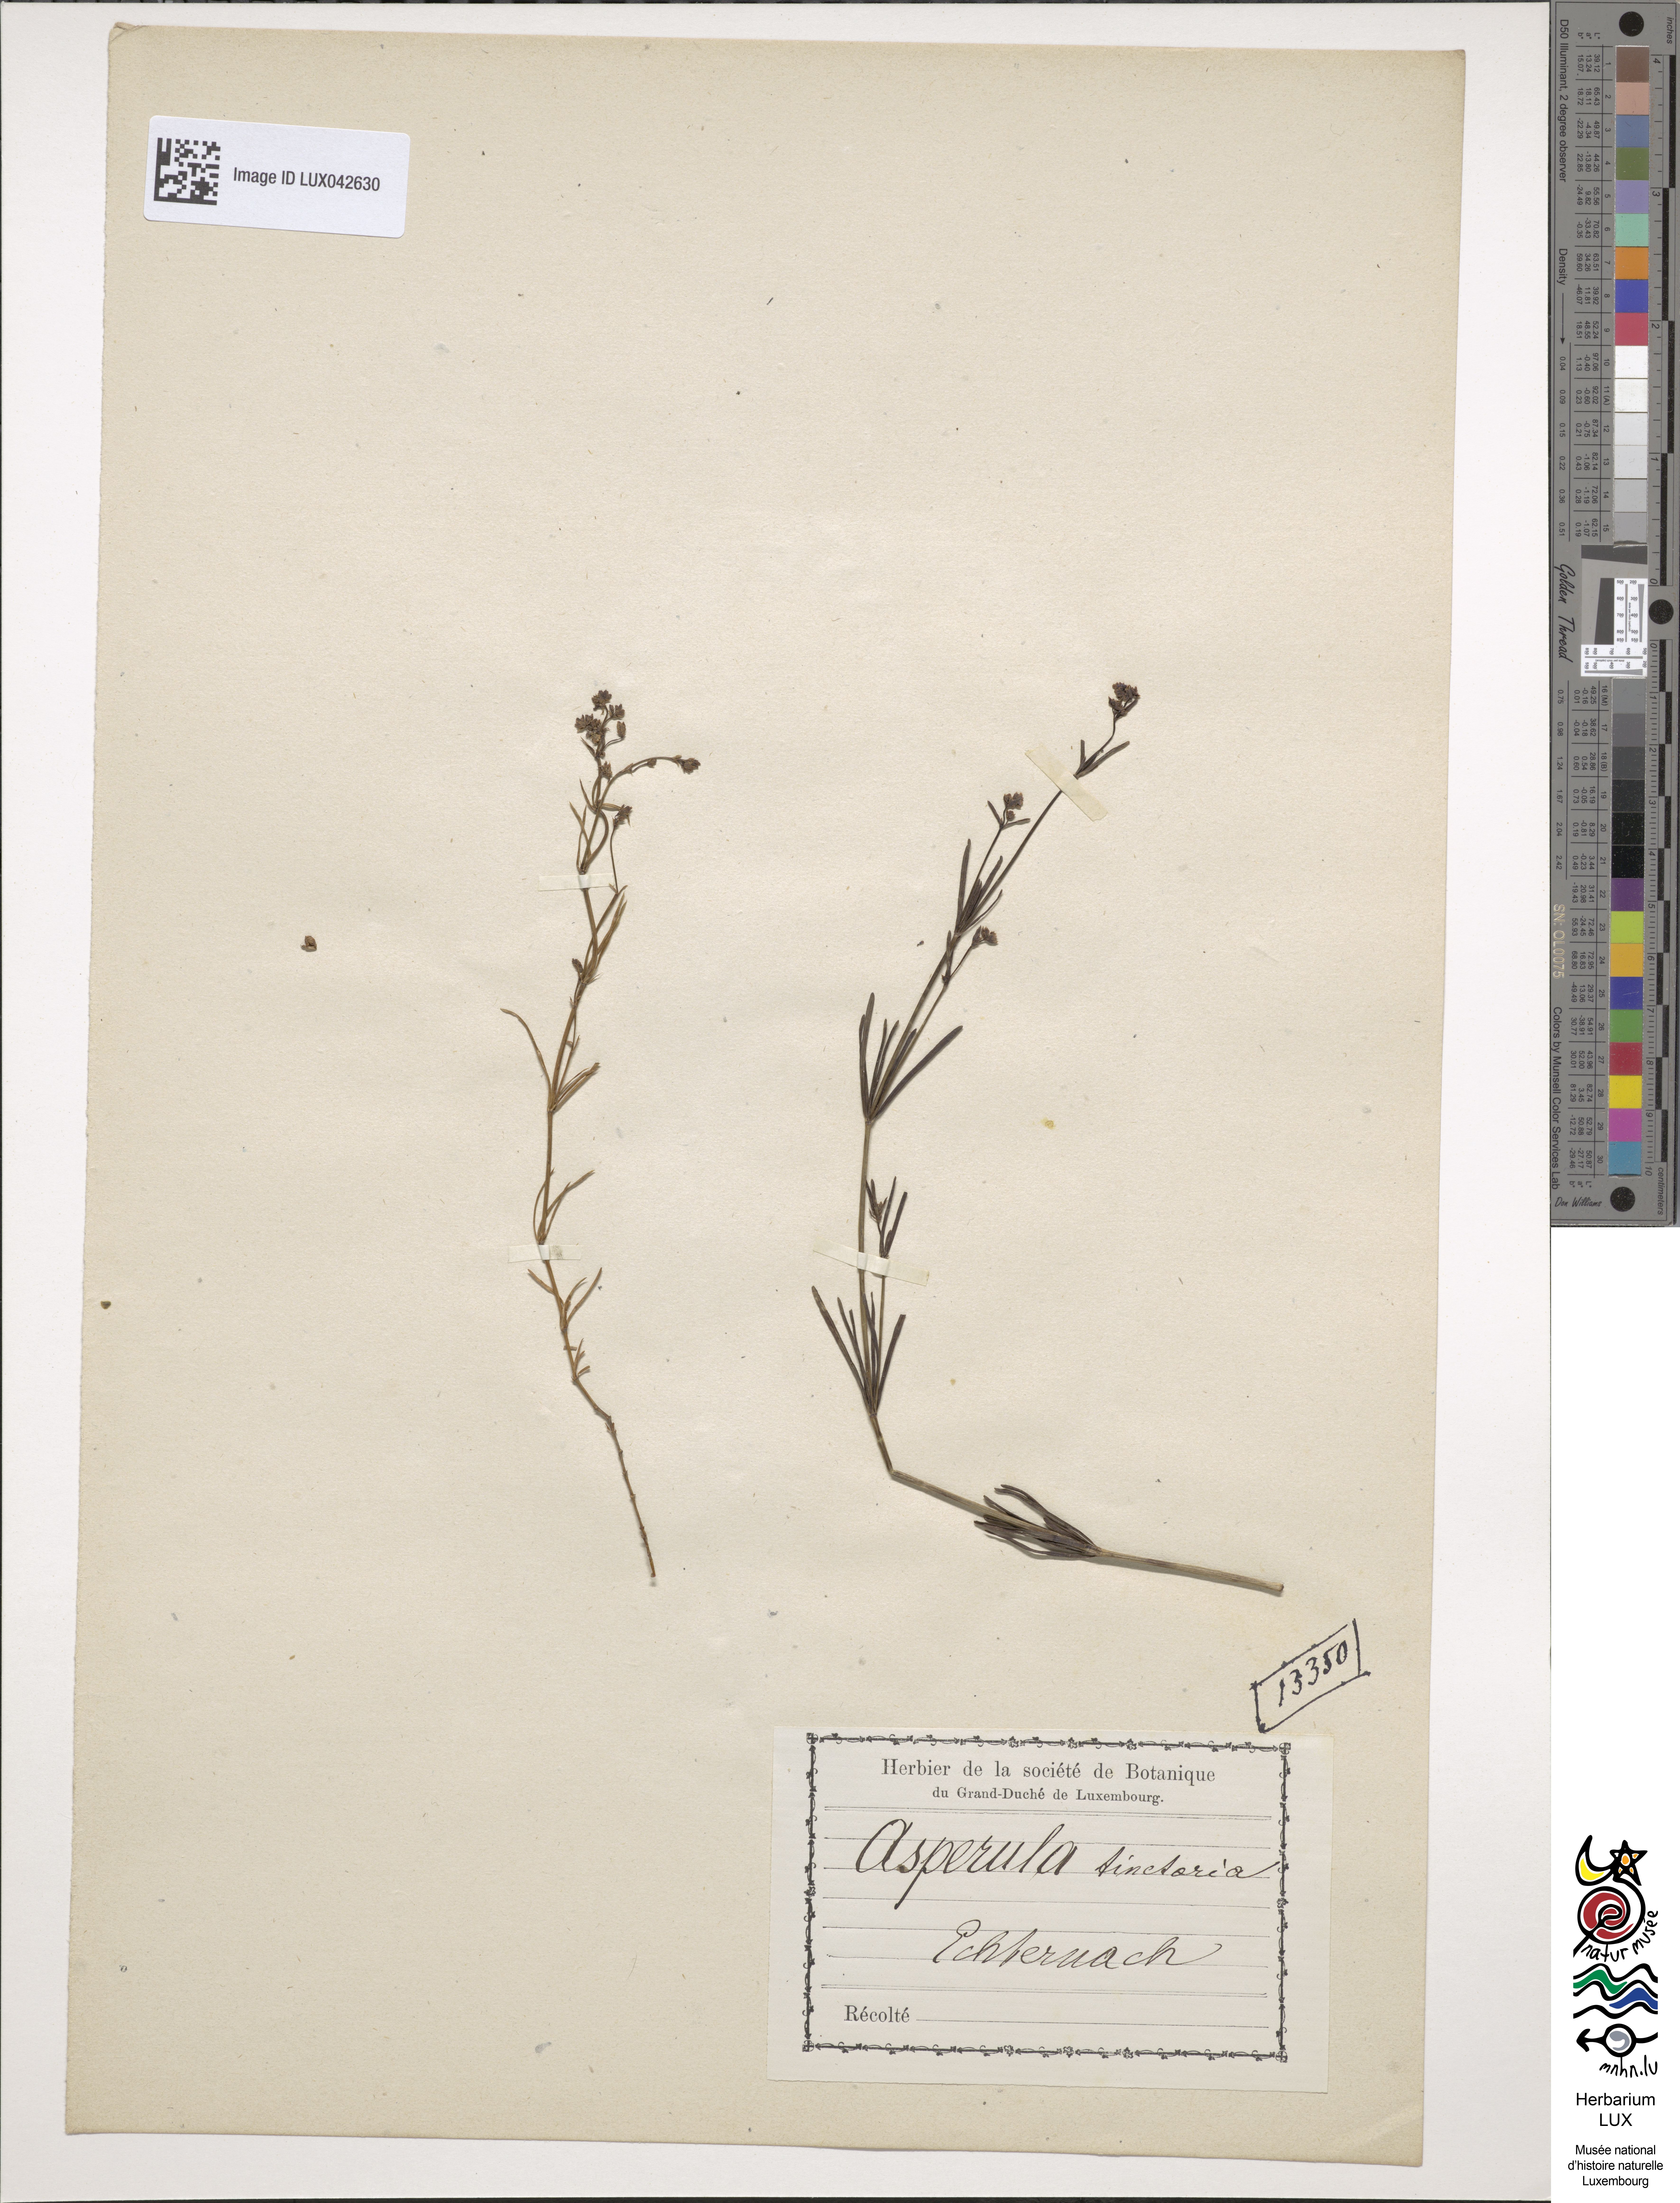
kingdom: Plantae
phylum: Tracheophyta
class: Magnoliopsida
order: Gentianales
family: Rubiaceae
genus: Asperula
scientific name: Asperula tinctoria
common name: Dyer's woodruff
